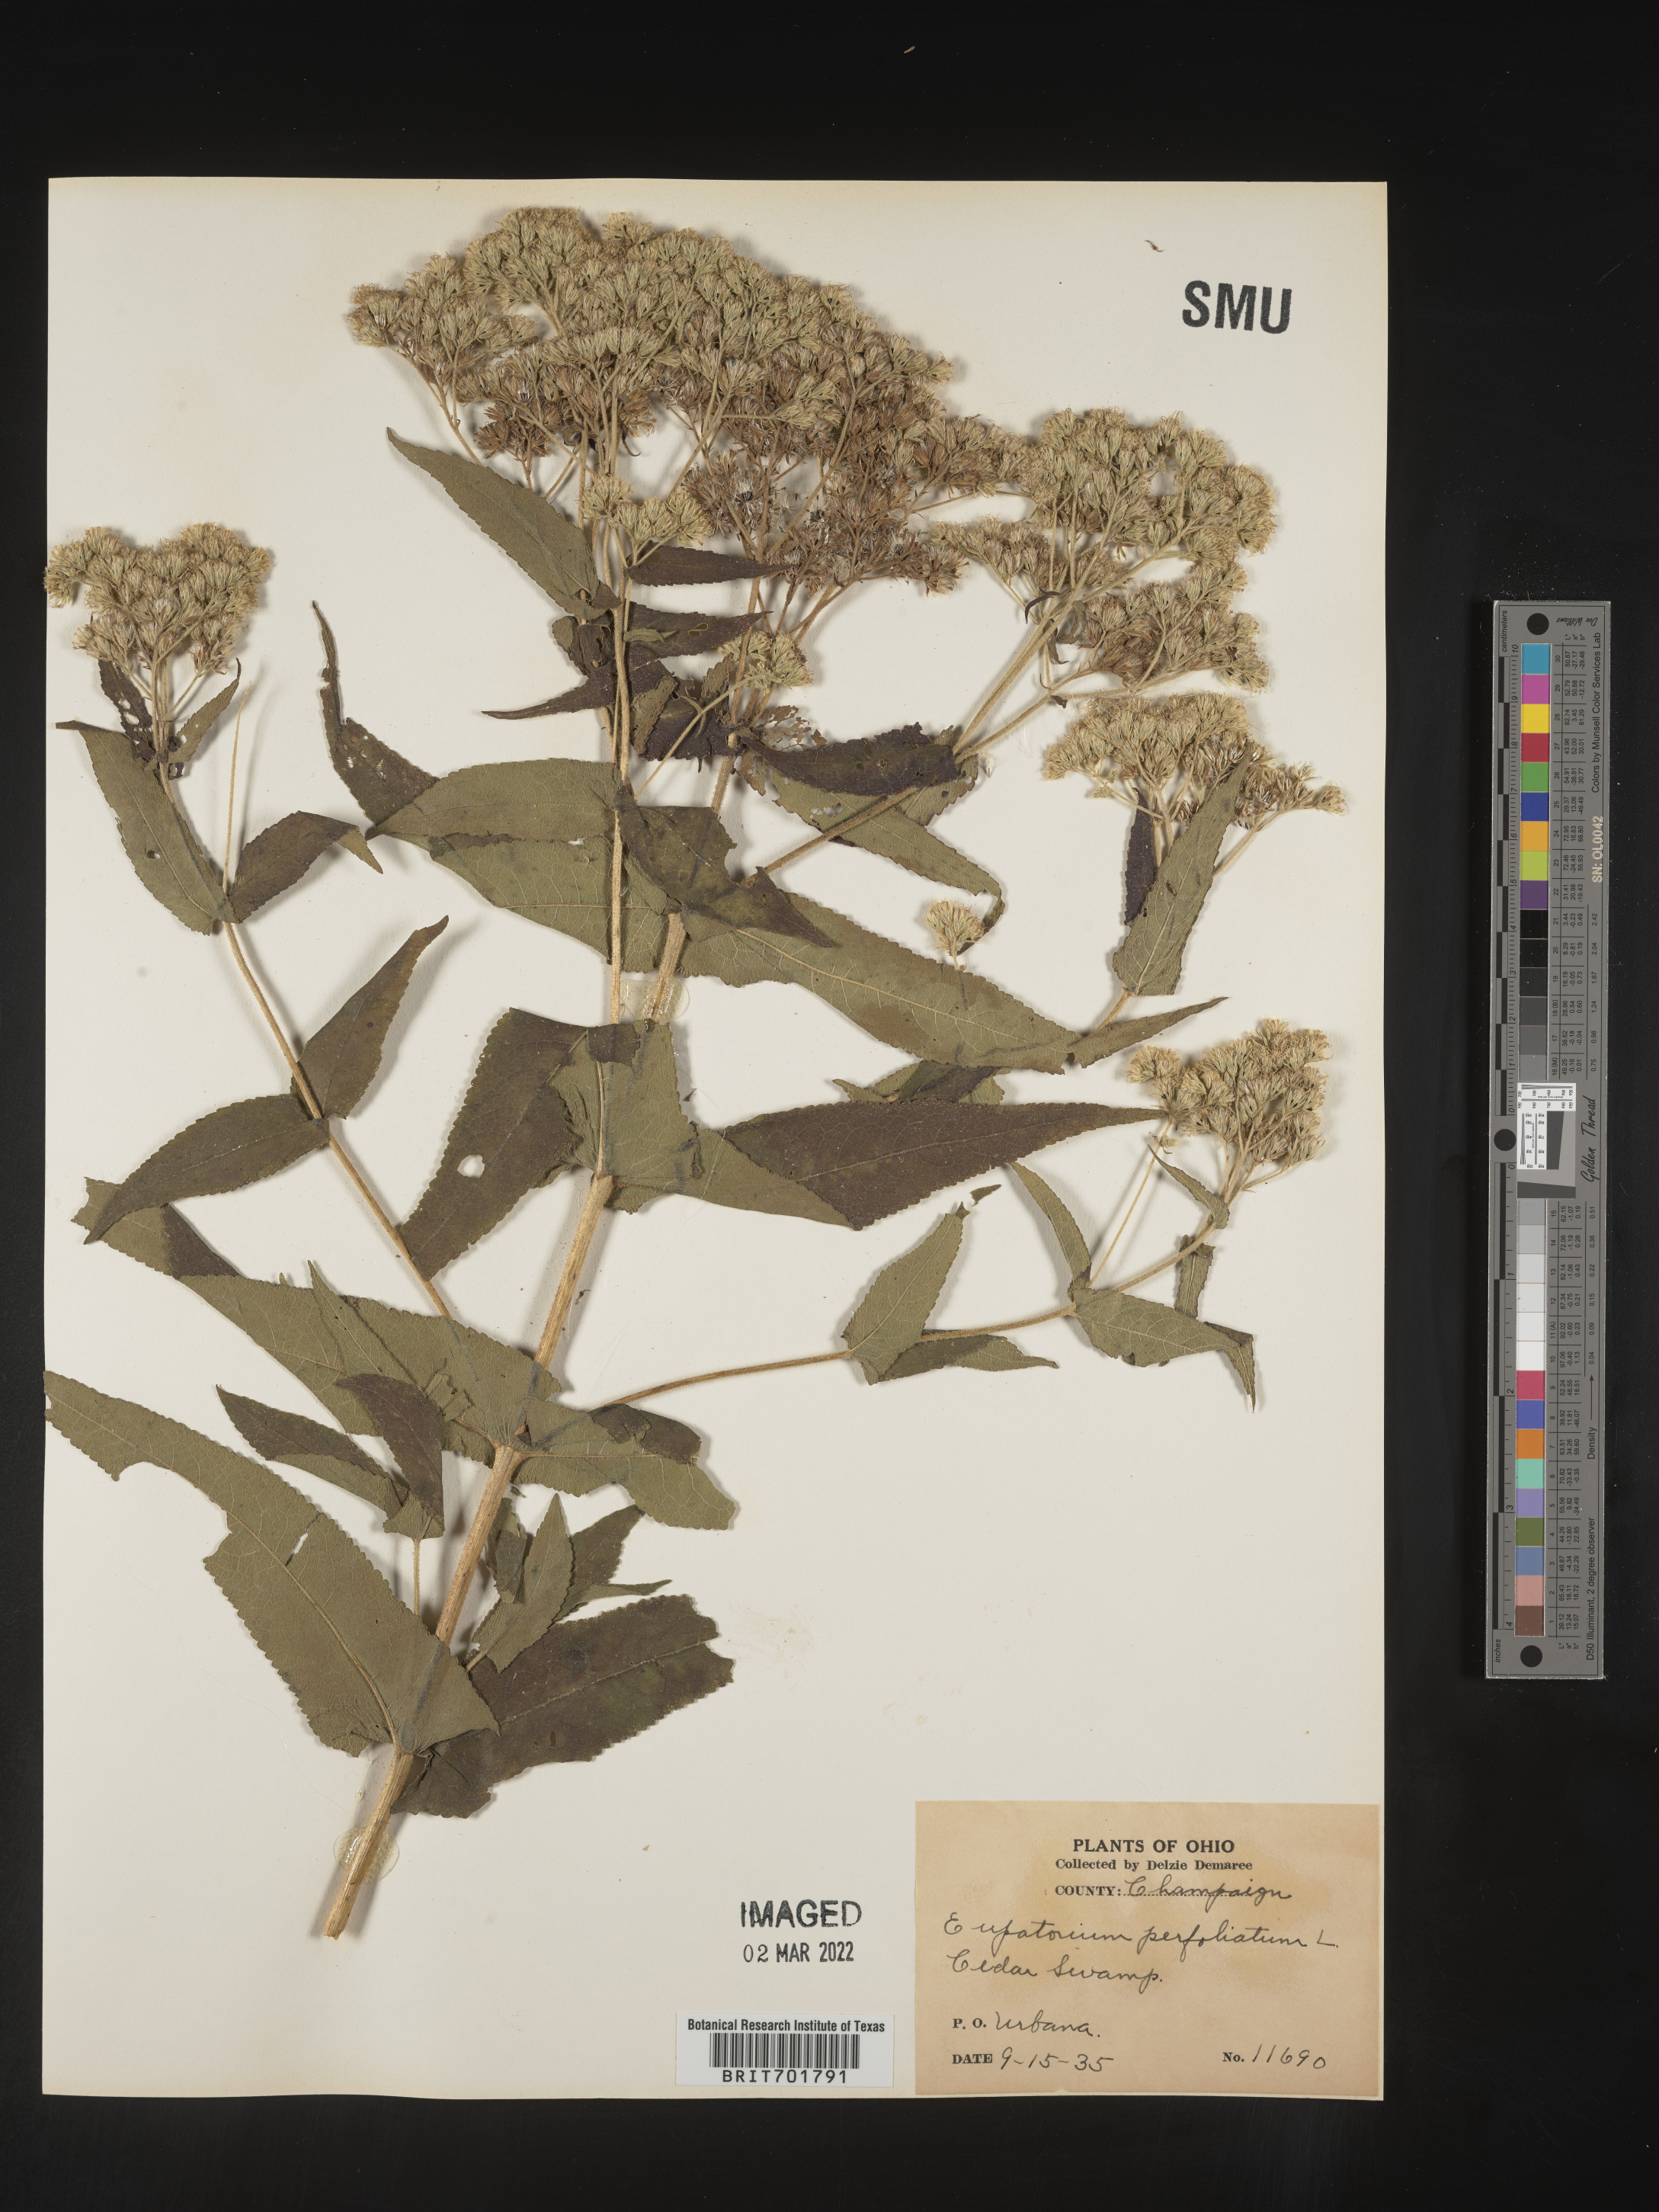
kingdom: Plantae
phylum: Tracheophyta
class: Magnoliopsida
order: Asterales
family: Asteraceae
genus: Eupatorium
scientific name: Eupatorium perfoliatum
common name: Boneset
